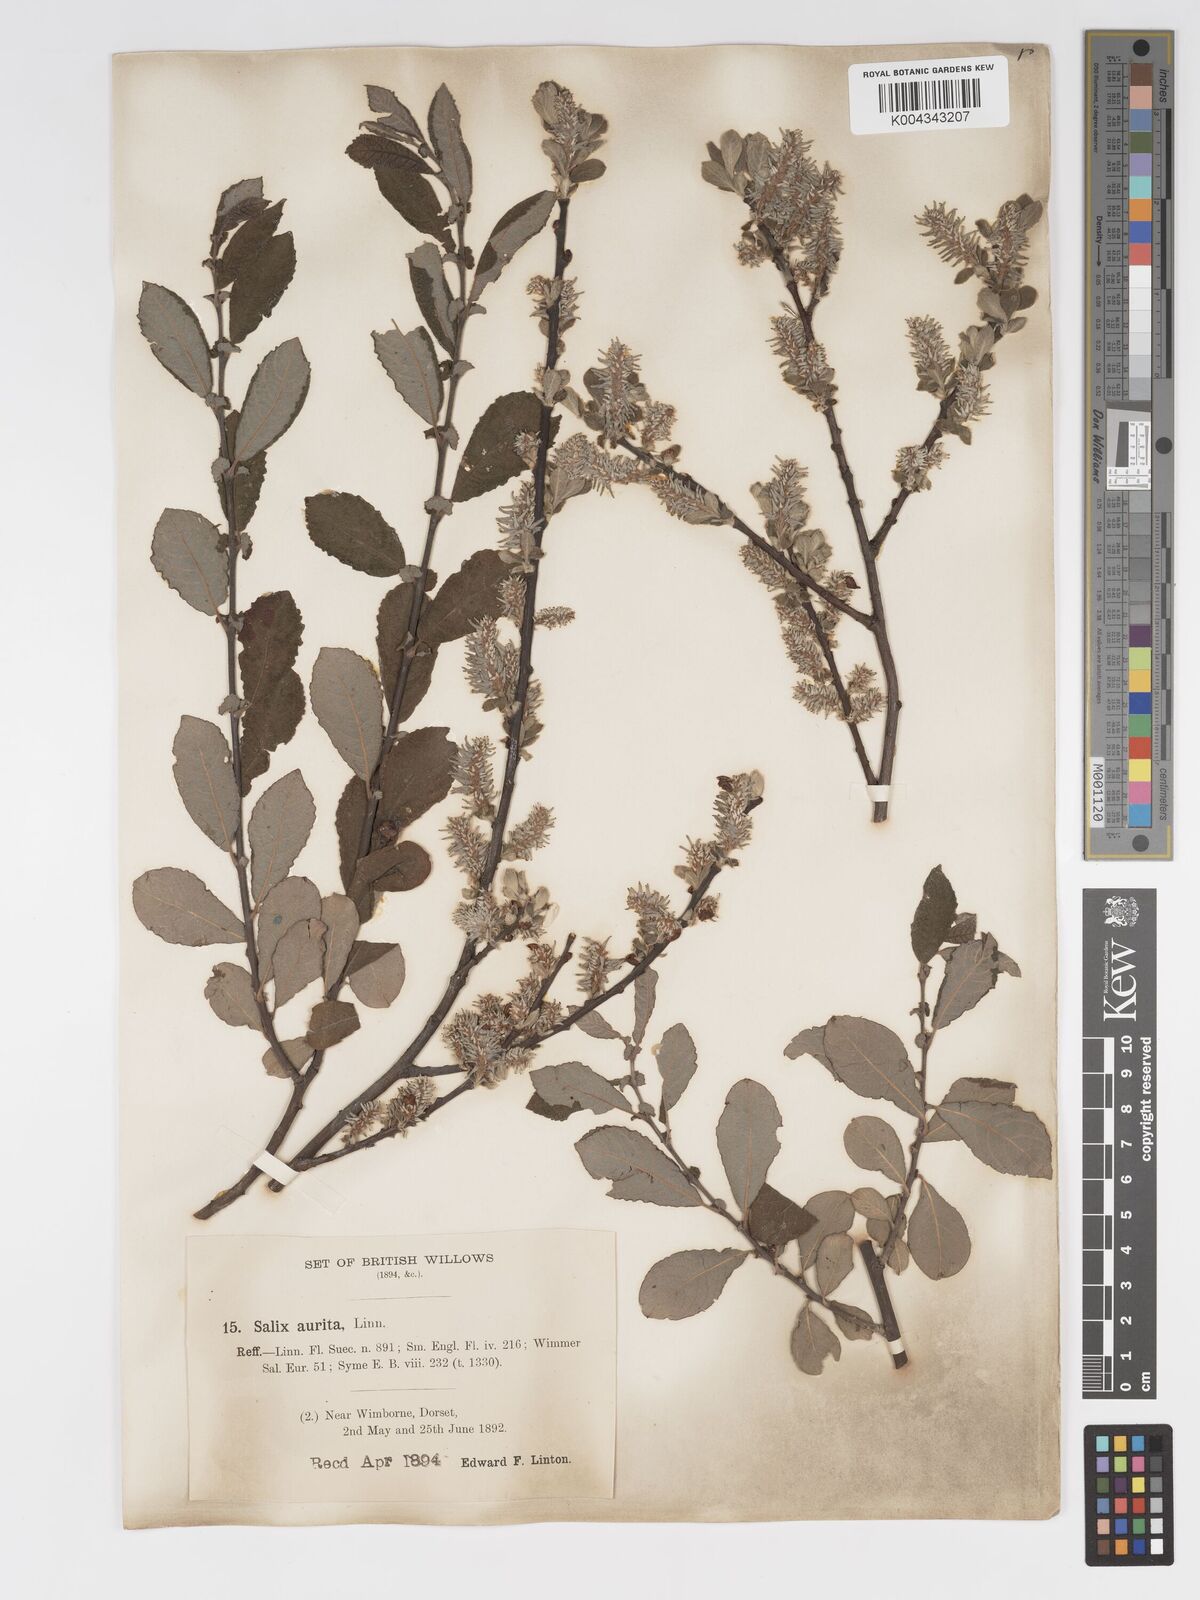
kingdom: Plantae
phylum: Tracheophyta
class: Magnoliopsida
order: Malpighiales
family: Salicaceae
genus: Salix
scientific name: Salix aurita
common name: Eared willow
